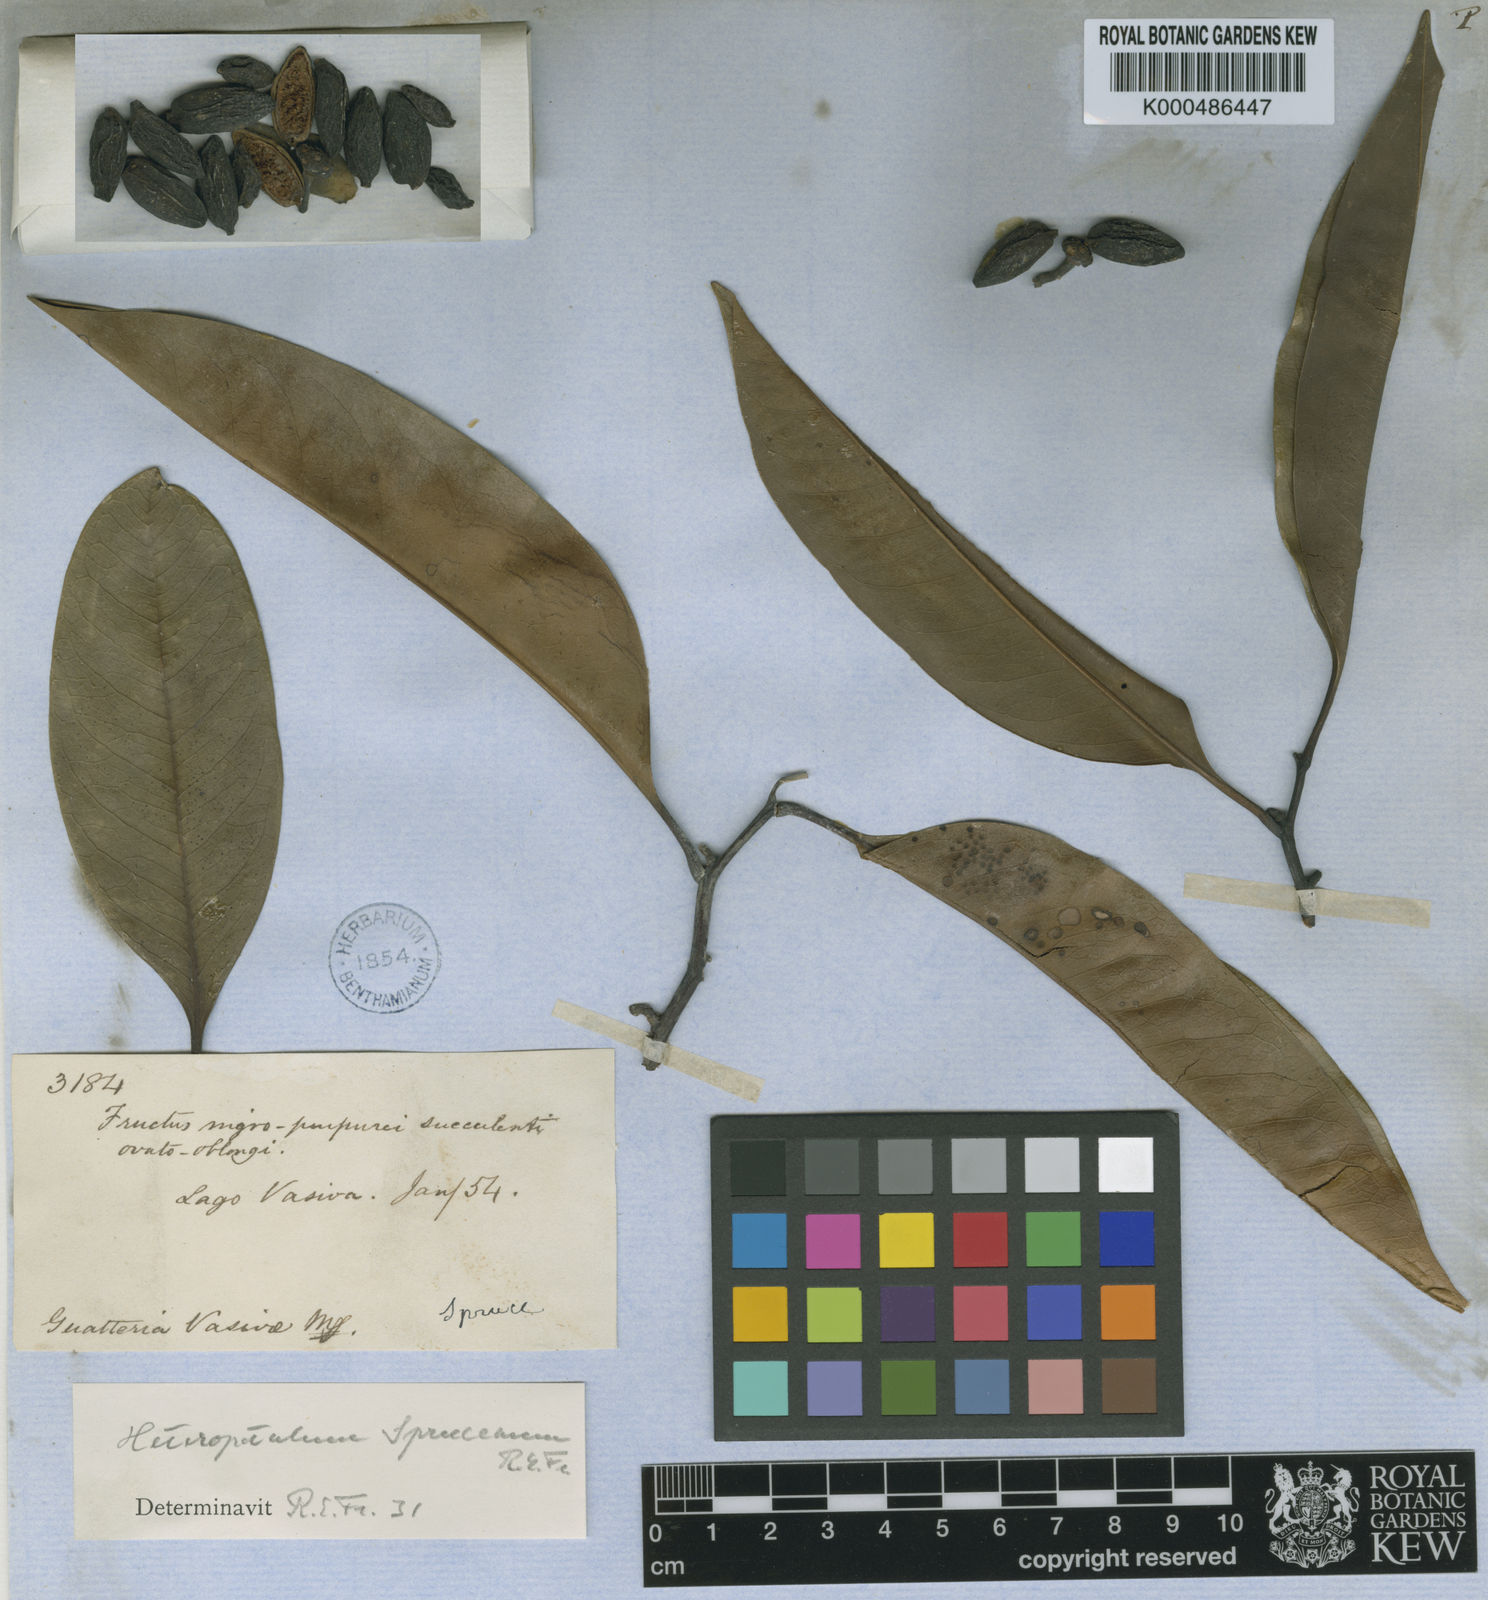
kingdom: Plantae
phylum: Tracheophyta
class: Magnoliopsida
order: Magnoliales
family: Annonaceae
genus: Guatteria
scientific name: Guatteria heteropetala
